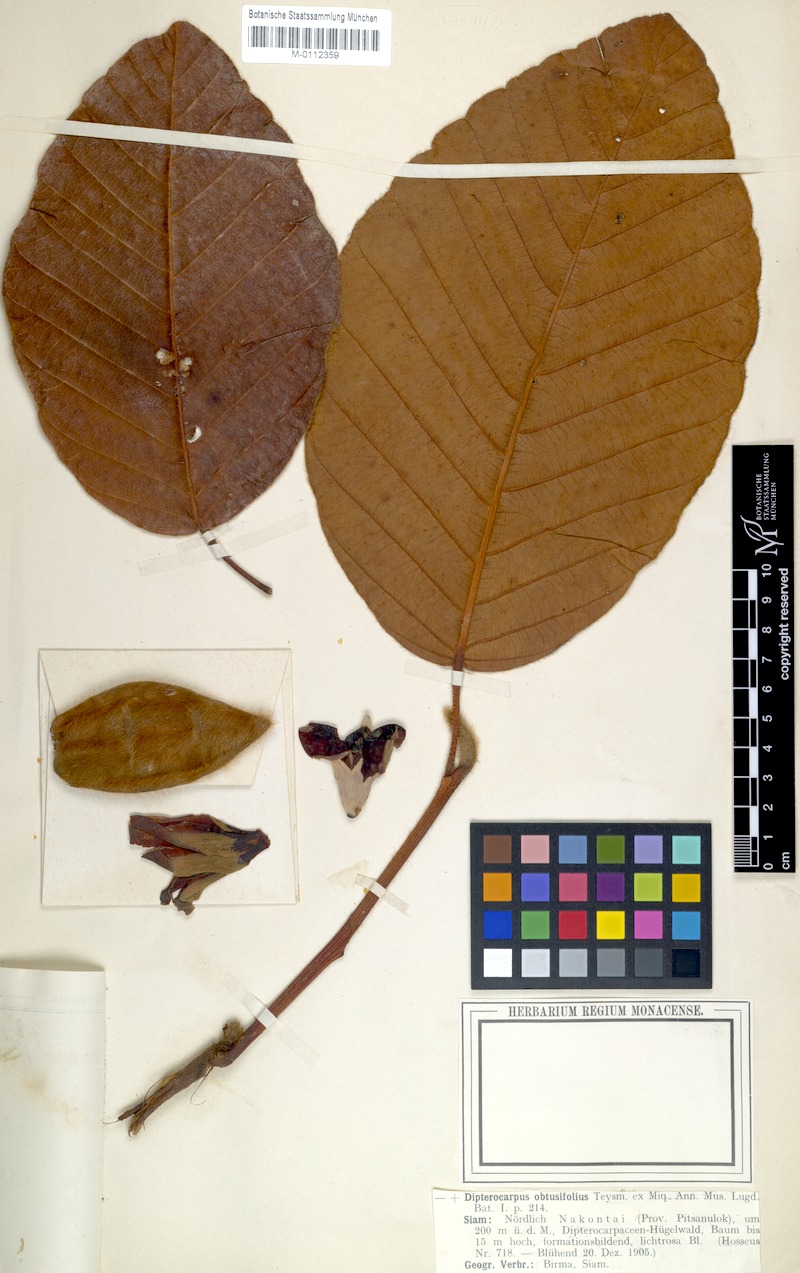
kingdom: Plantae
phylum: Tracheophyta
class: Magnoliopsida
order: Malvales
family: Dipterocarpaceae
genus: Dipterocarpus
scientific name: Dipterocarpus obtusifolius
